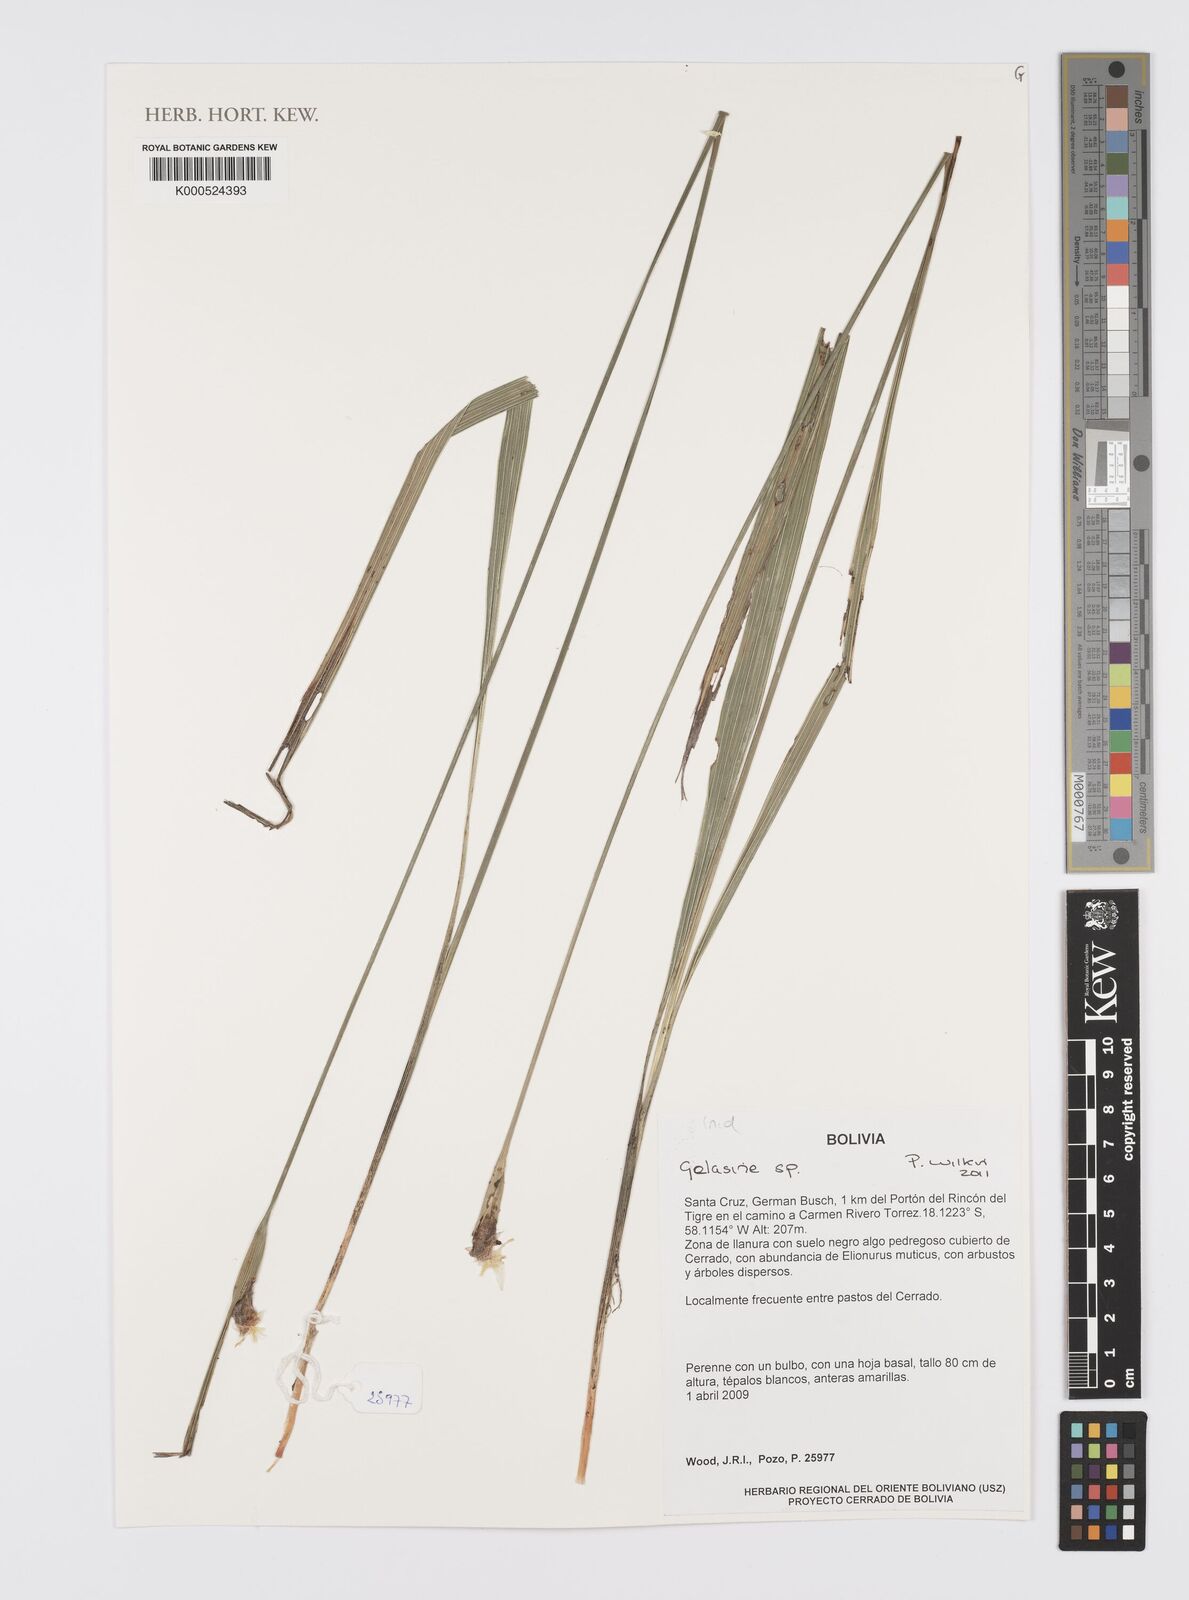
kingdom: Plantae
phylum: Tracheophyta
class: Liliopsida
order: Asparagales
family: Iridaceae
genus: Gelasine
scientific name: Gelasine
